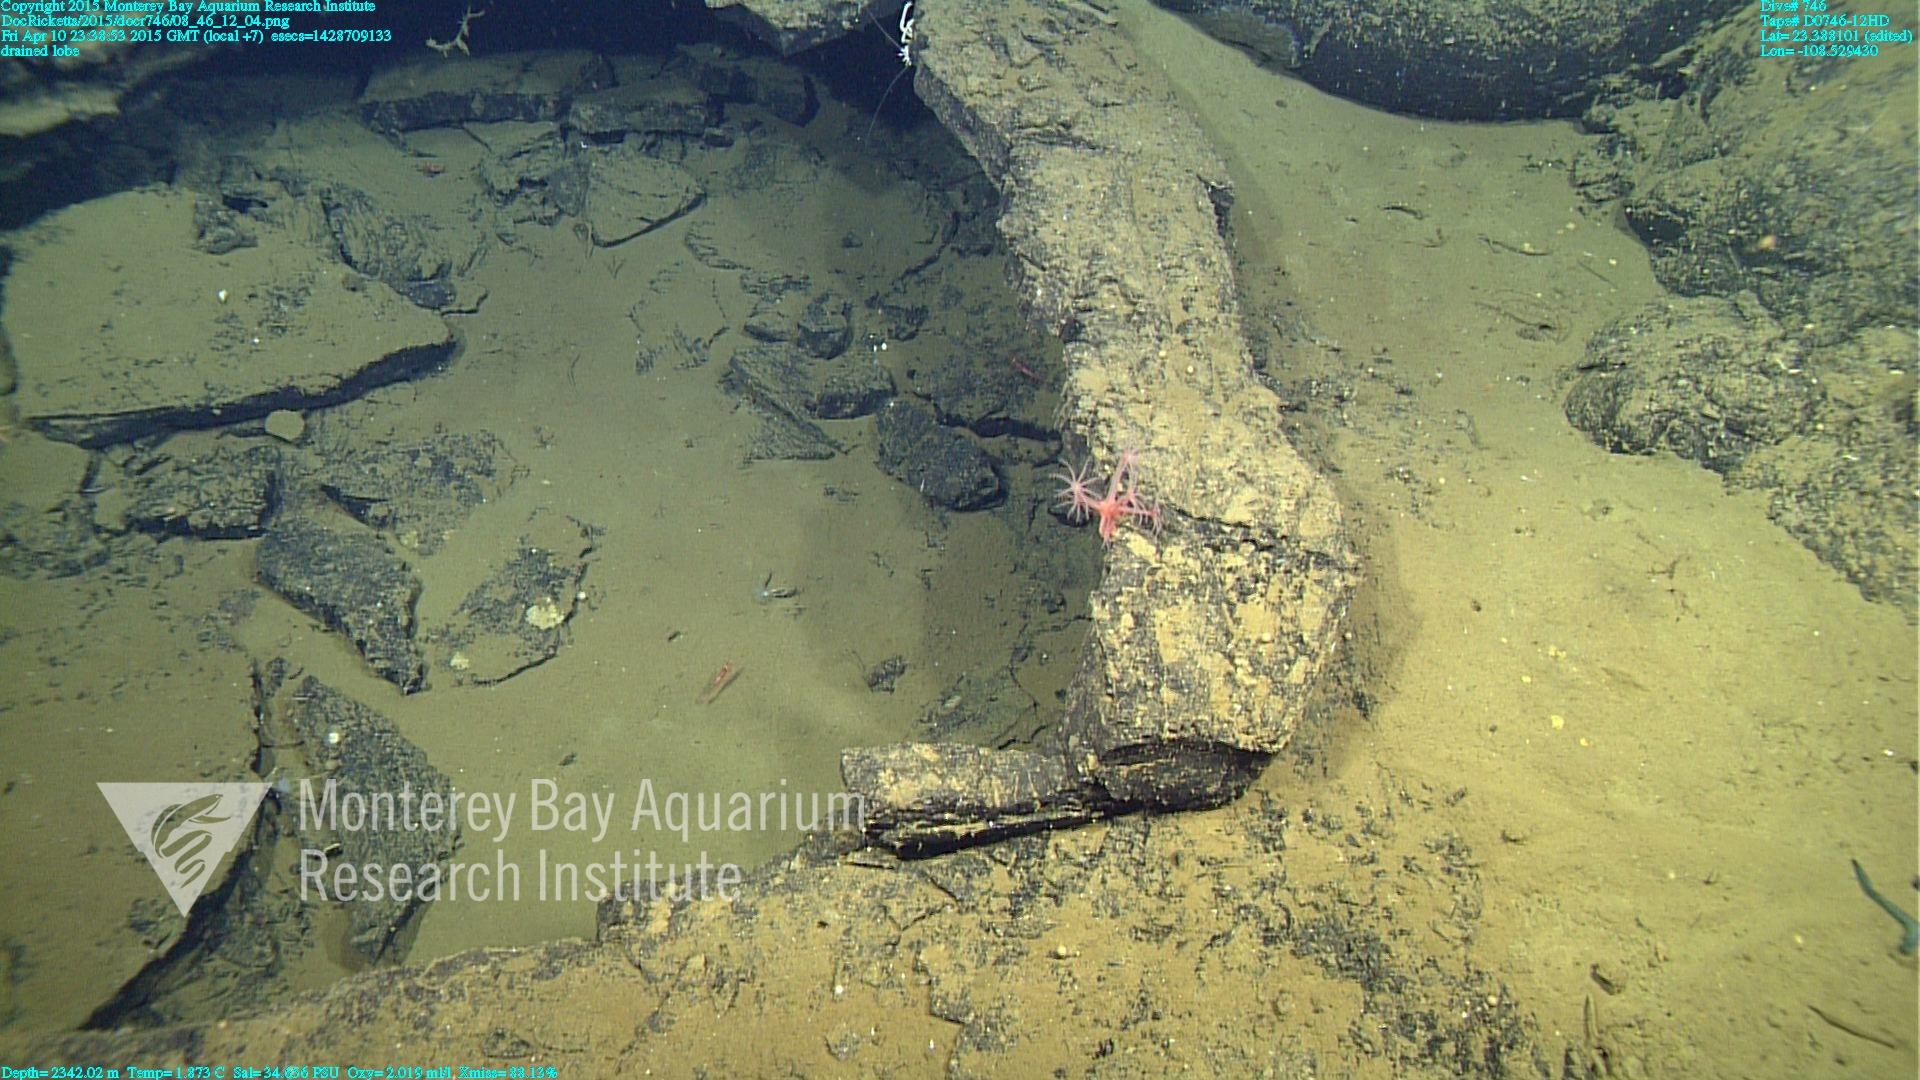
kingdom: Animalia
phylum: Cnidaria
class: Anthozoa
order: Scleralcyonacea
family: Coralliidae
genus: Heteropolypus
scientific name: Heteropolypus ritteri
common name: Ritter's soft coral
